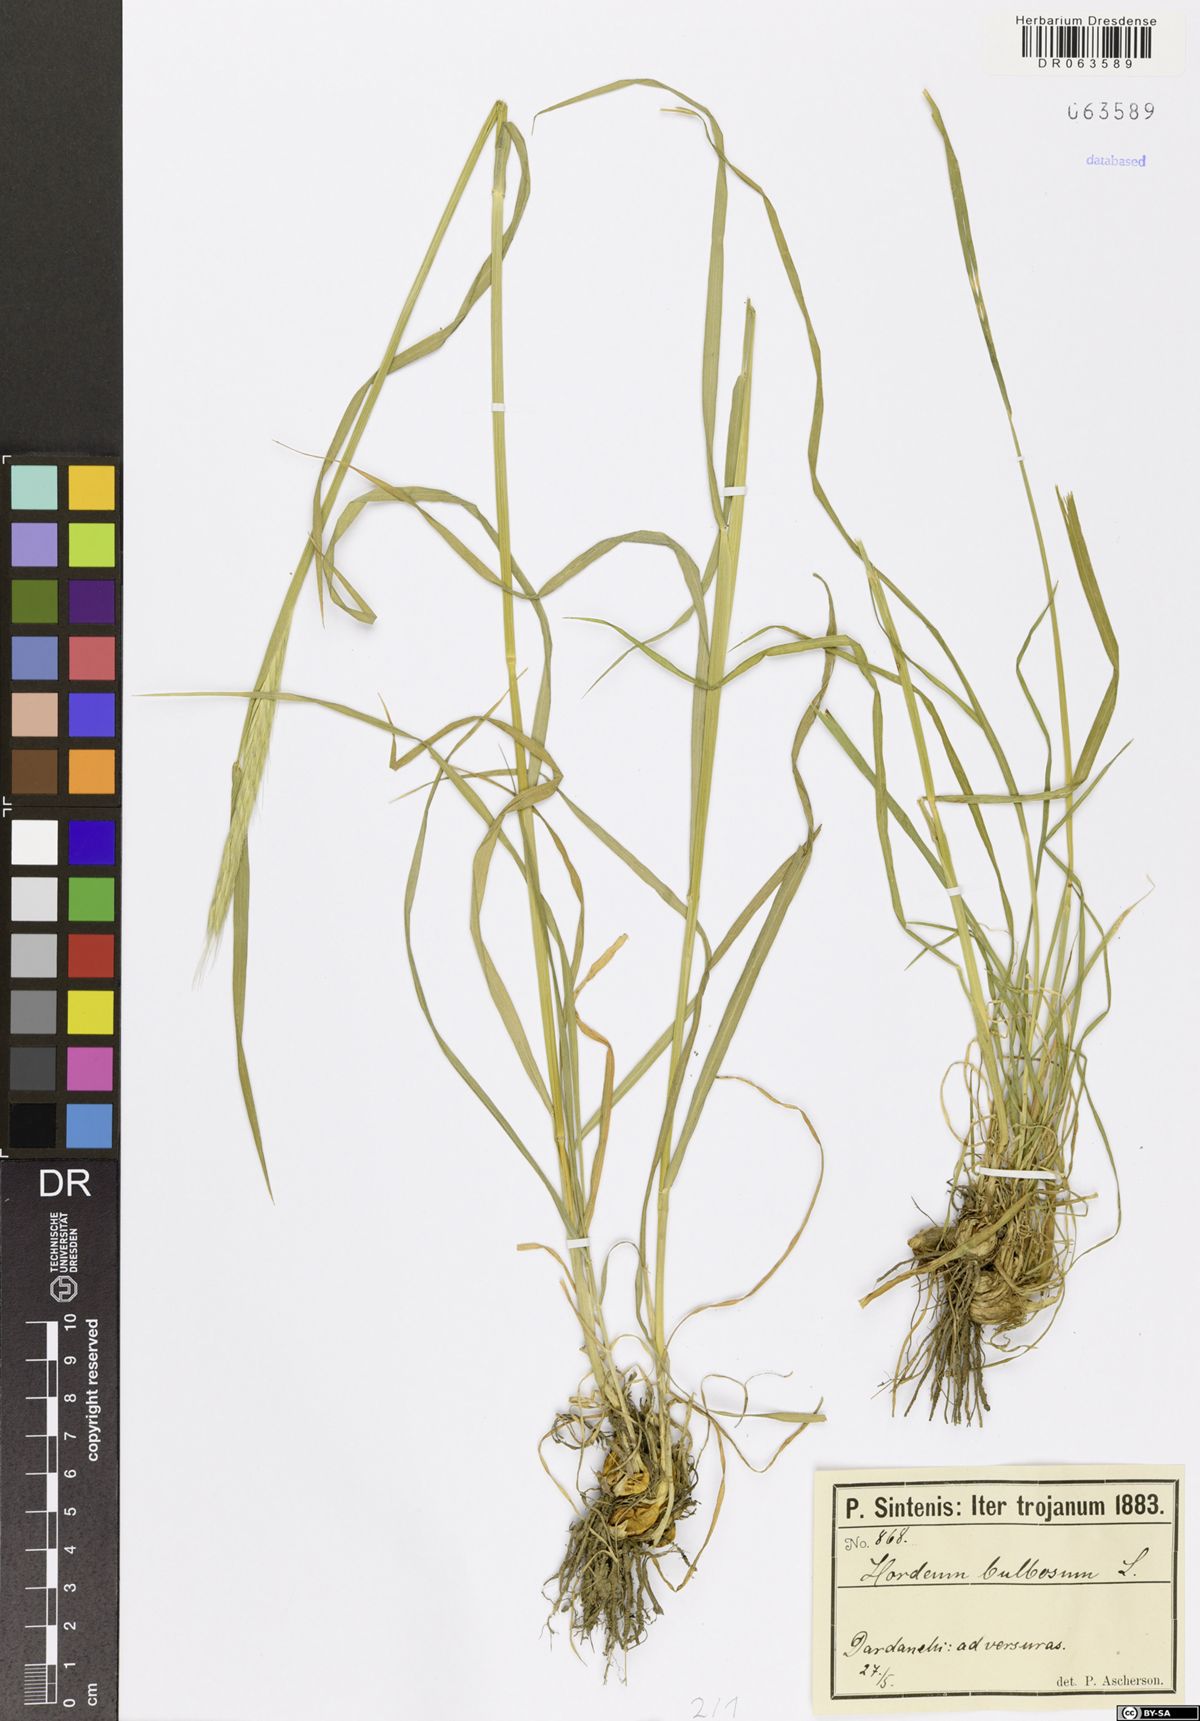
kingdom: Plantae
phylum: Tracheophyta
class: Liliopsida
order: Poales
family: Poaceae
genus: Hordeum
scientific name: Hordeum bulbosum
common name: Bulbous barley
